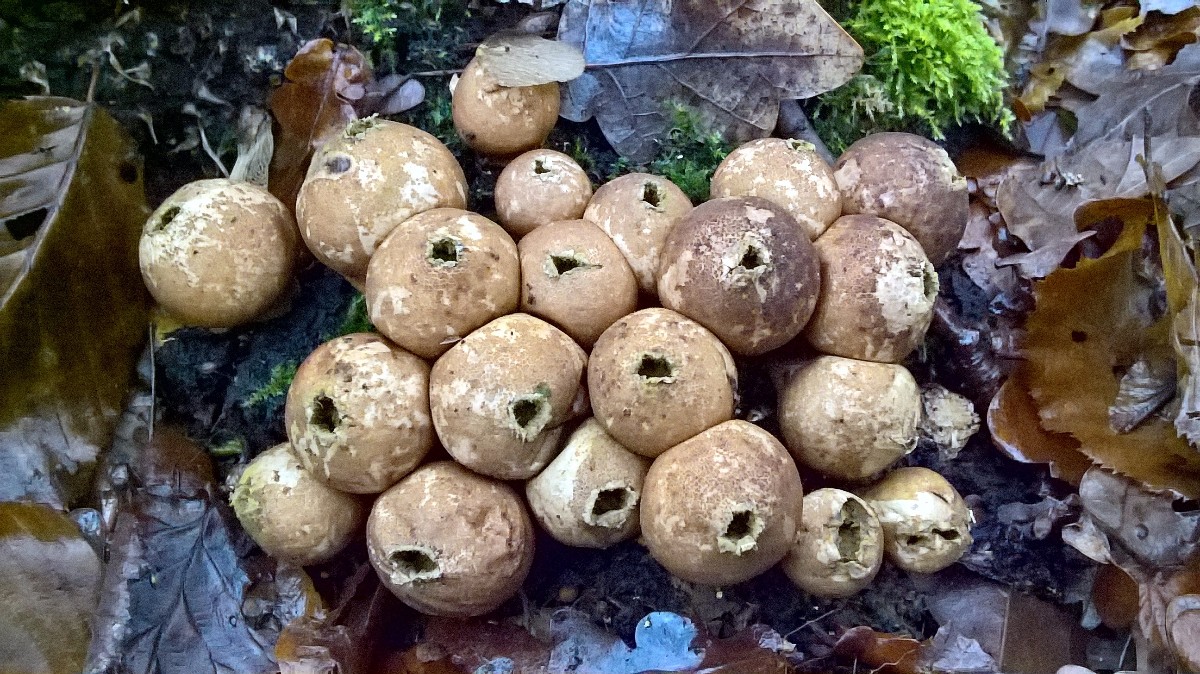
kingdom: Fungi
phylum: Basidiomycota
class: Agaricomycetes
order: Agaricales
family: Lycoperdaceae
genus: Apioperdon
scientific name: Apioperdon pyriforme
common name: pære-støvbold
